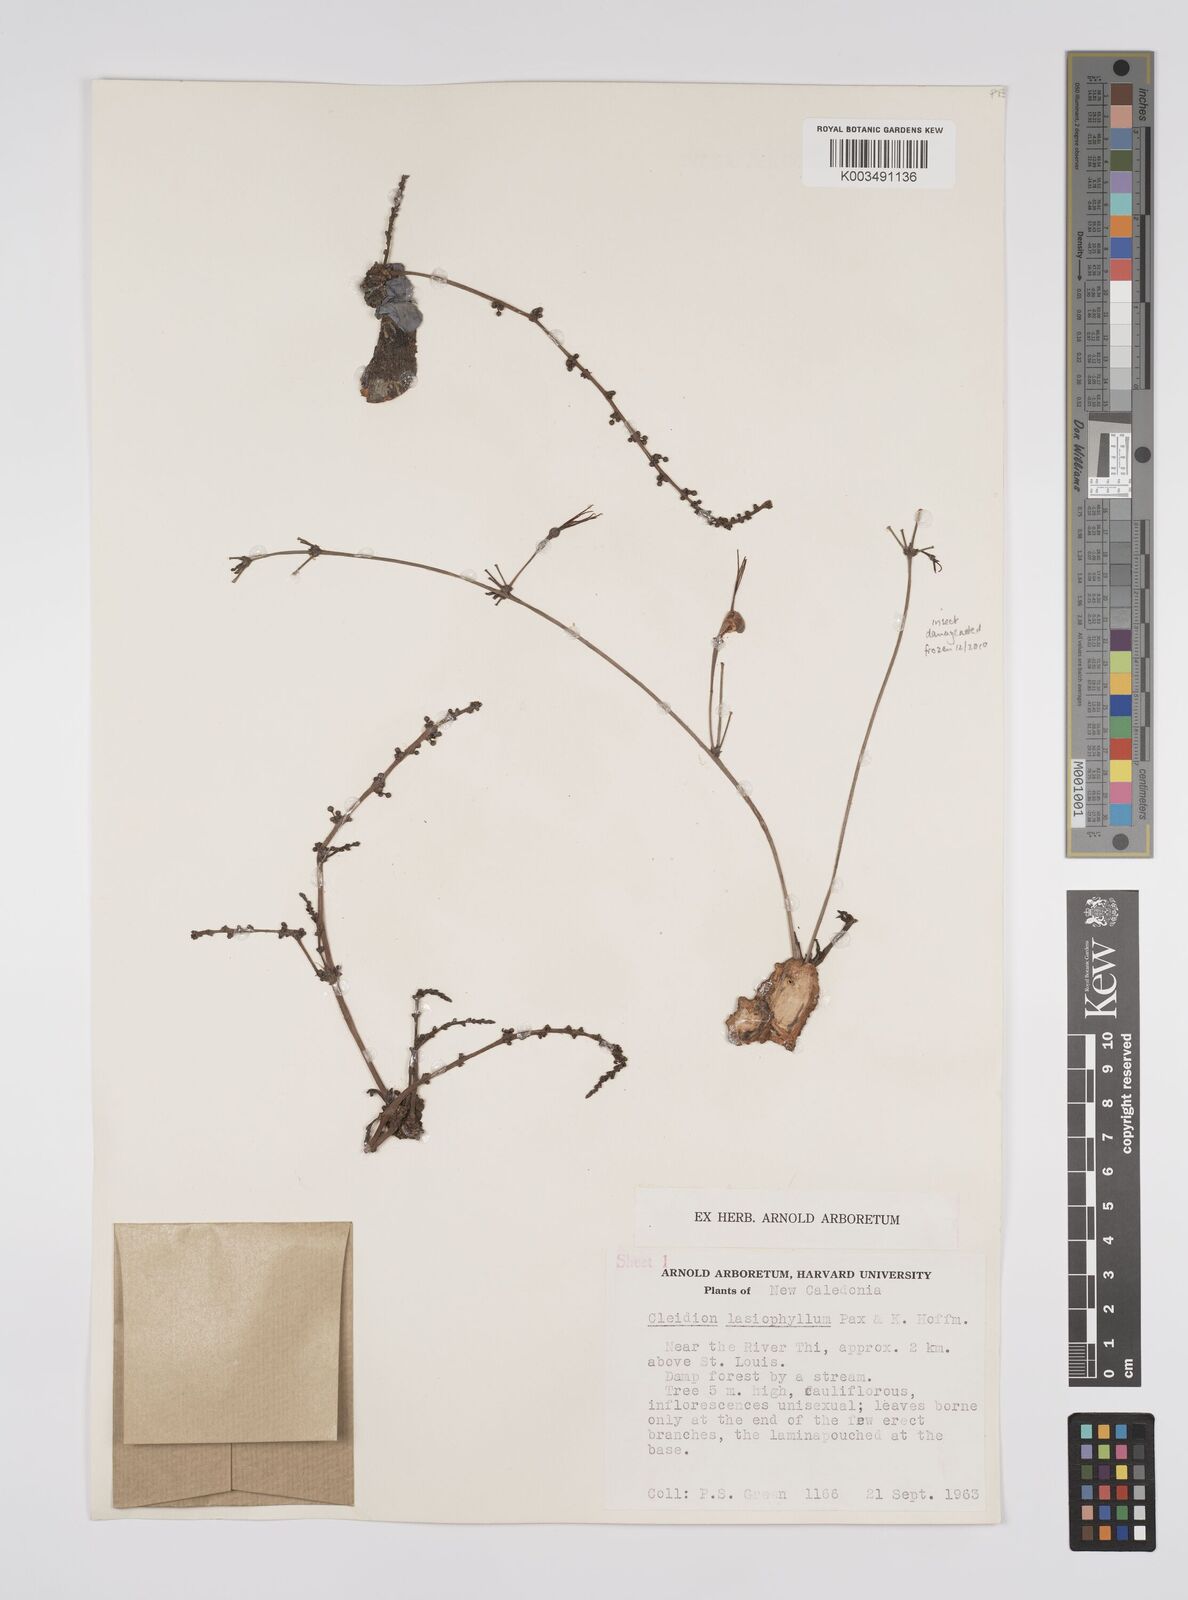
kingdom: Plantae
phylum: Tracheophyta
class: Magnoliopsida
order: Malpighiales
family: Euphorbiaceae
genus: Cleidion
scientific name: Cleidion lasiophyllum
